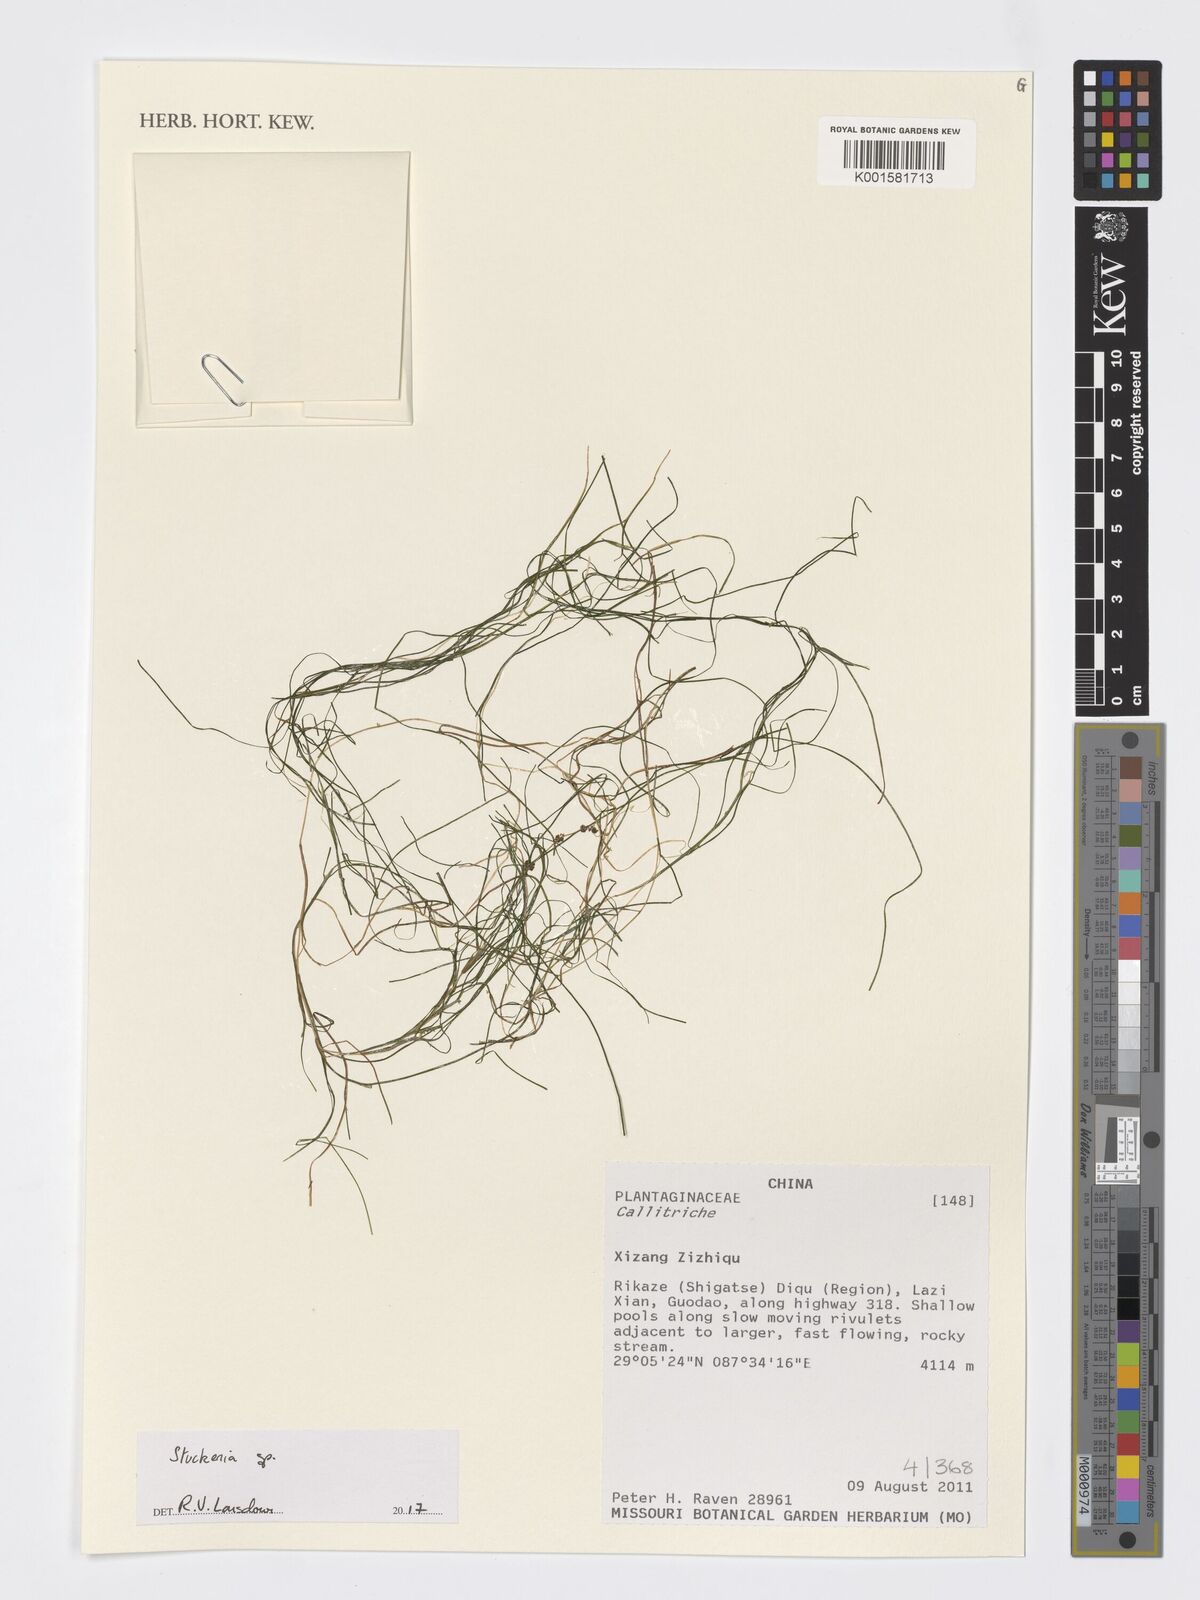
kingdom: Plantae
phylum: Tracheophyta
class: Liliopsida
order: Alismatales
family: Potamogetonaceae
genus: Stuckenia
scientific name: Stuckenia
